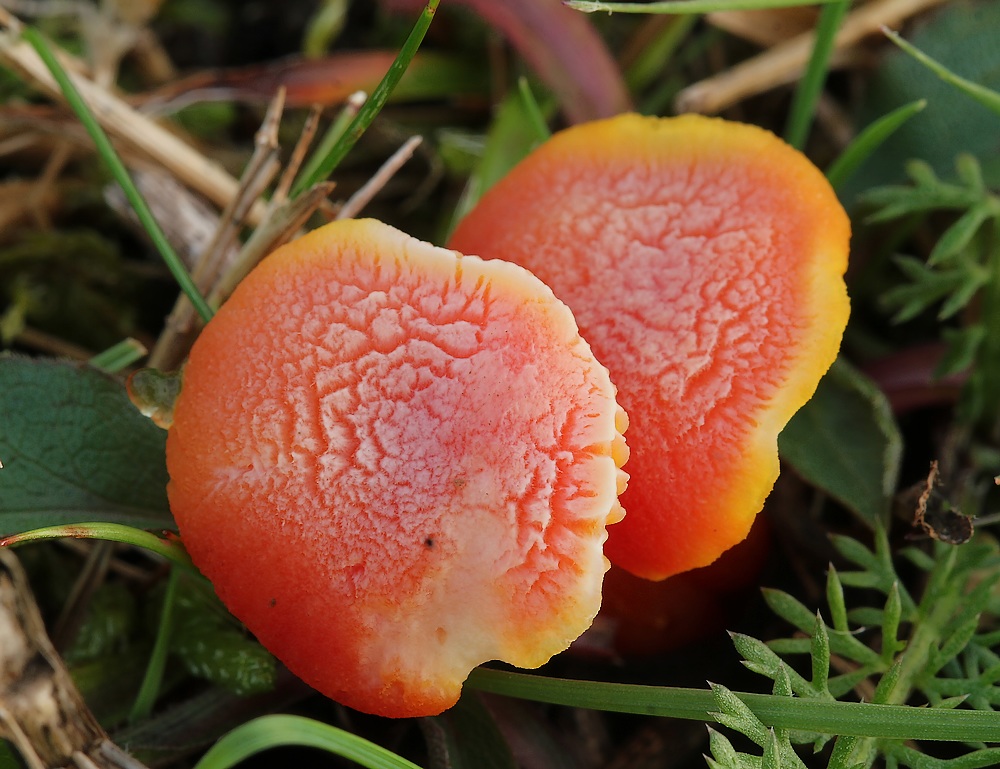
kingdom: Fungi
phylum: Basidiomycota
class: Agaricomycetes
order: Agaricales
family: Hygrophoraceae
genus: Hygrocybe
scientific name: Hygrocybe miniata
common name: mønje-vokshat
